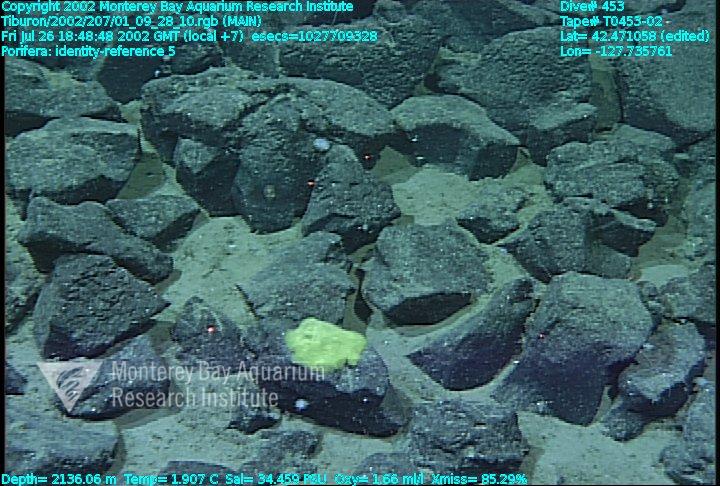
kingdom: Animalia
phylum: Porifera
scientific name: Porifera
